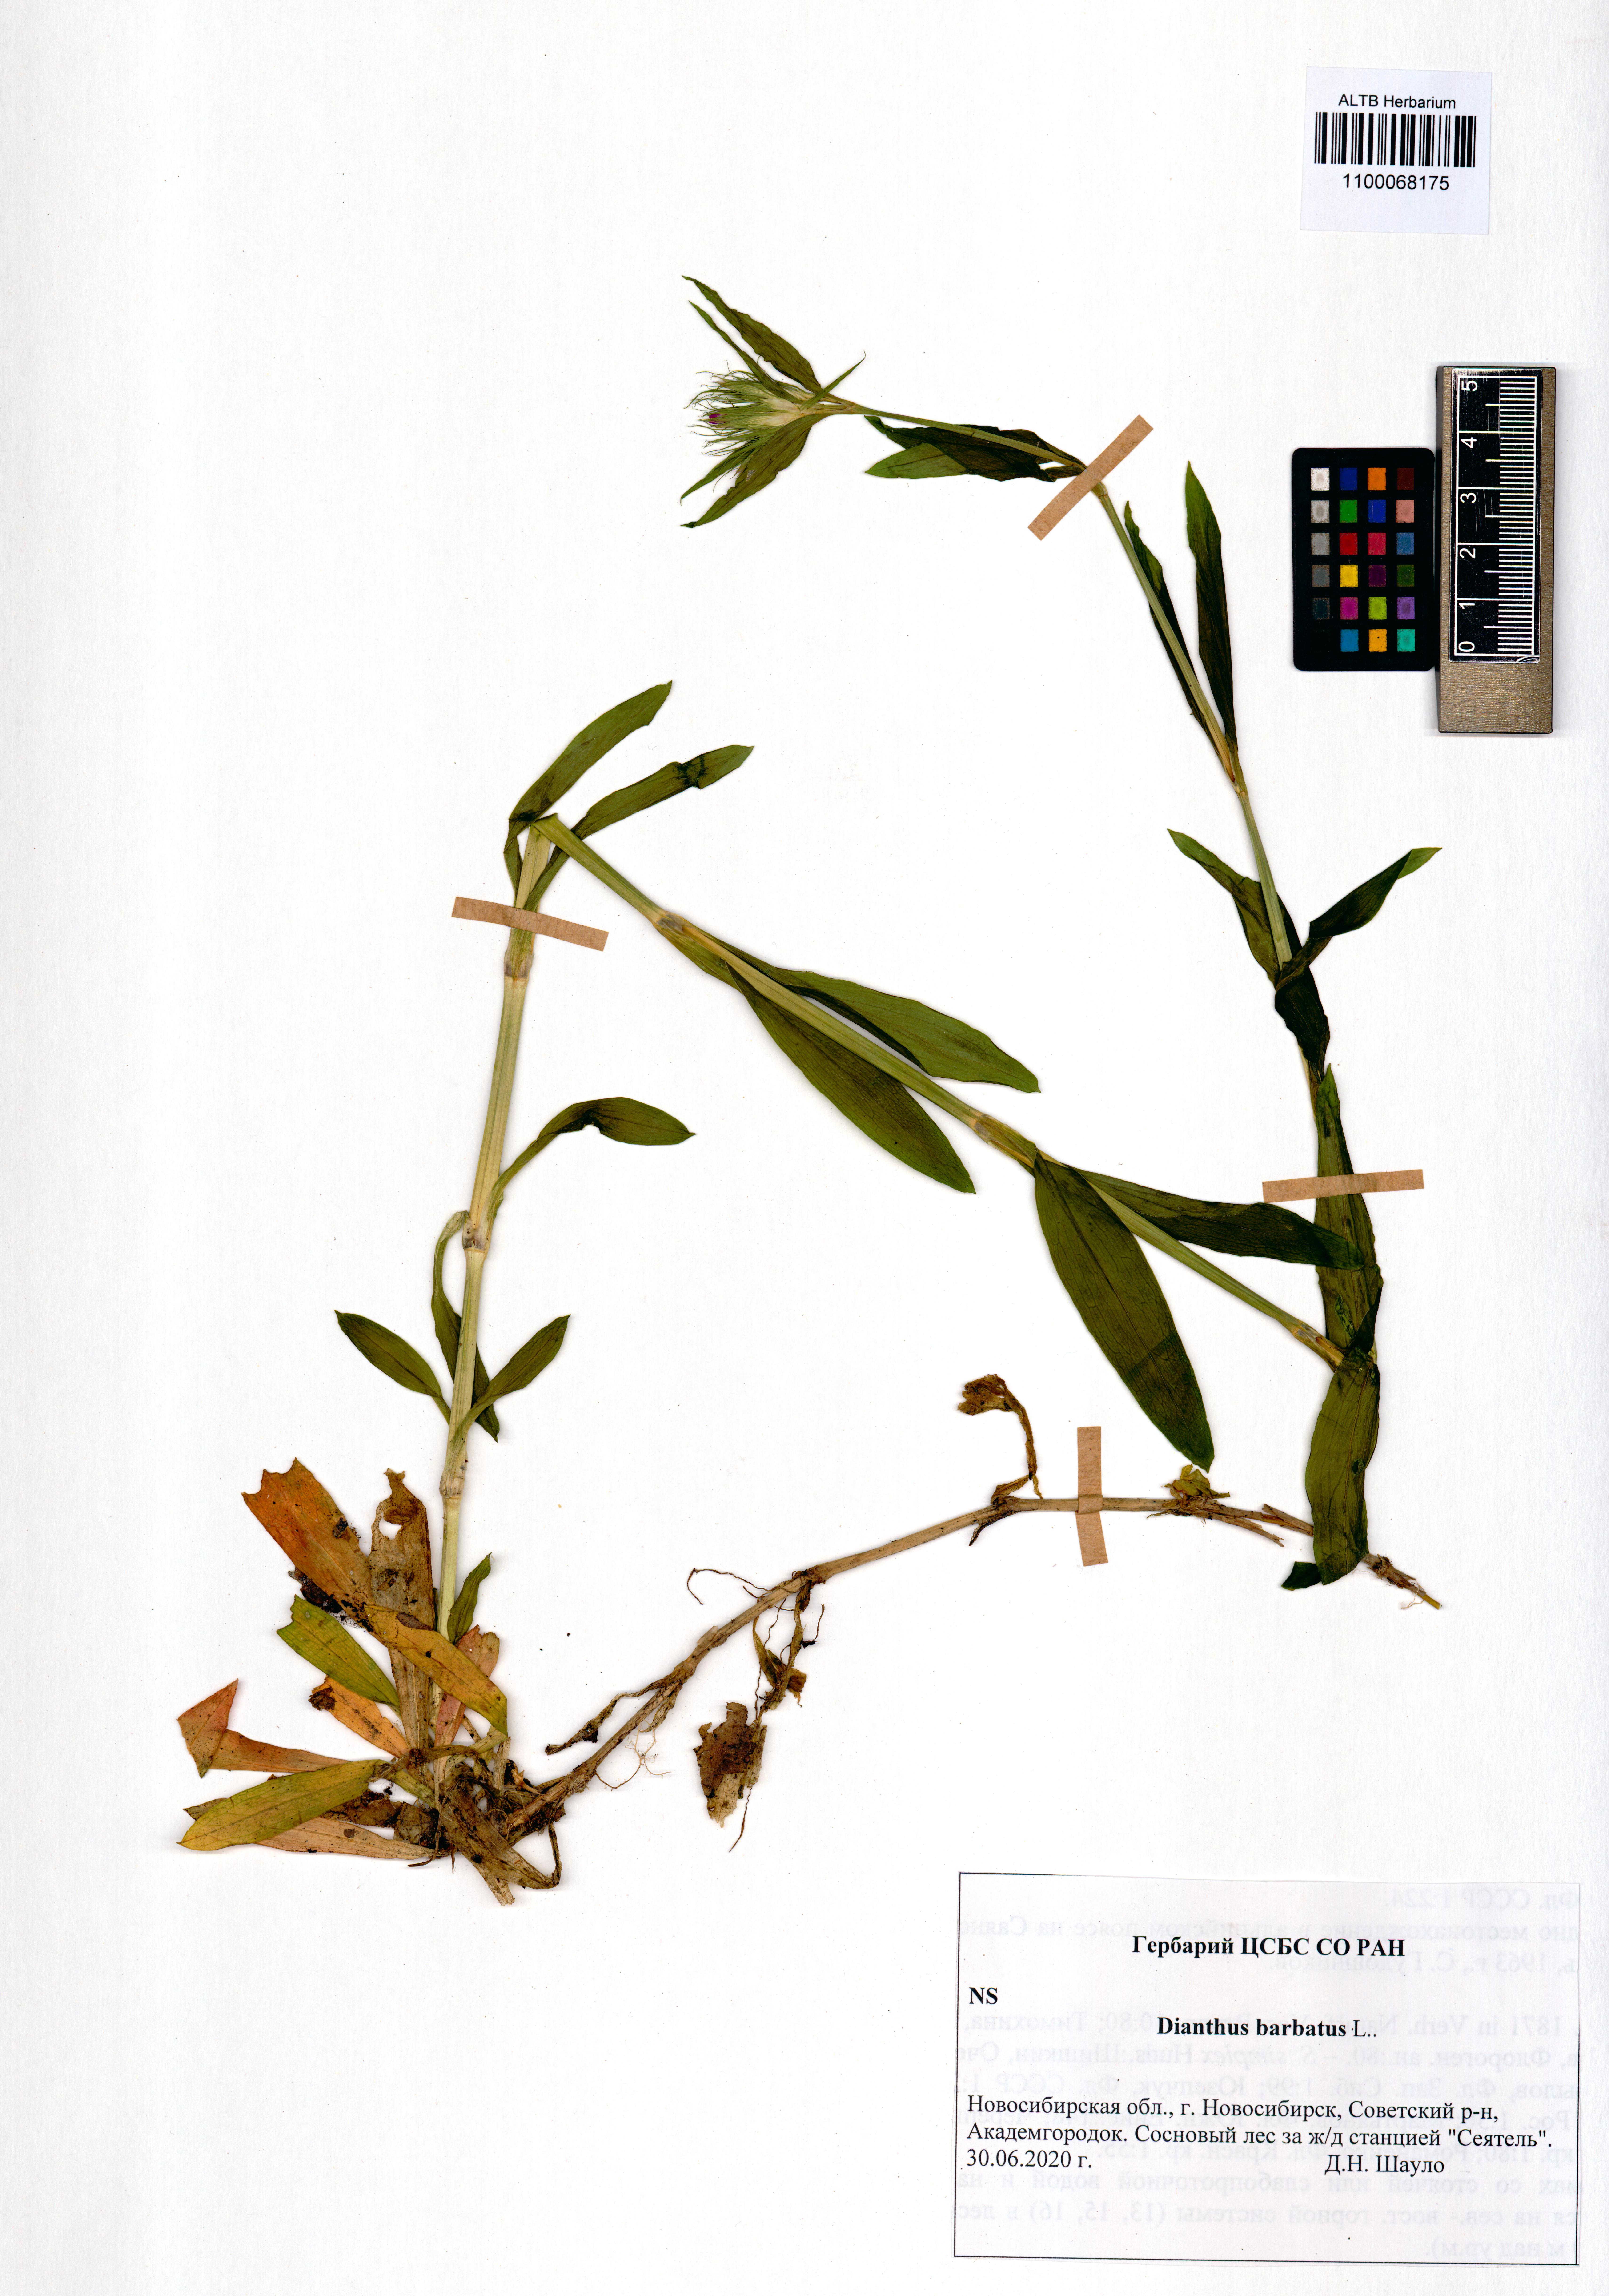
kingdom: Plantae
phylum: Tracheophyta
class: Magnoliopsida
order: Caryophyllales
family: Caryophyllaceae
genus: Dianthus
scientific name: Dianthus barbatus
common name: Sweet-william
